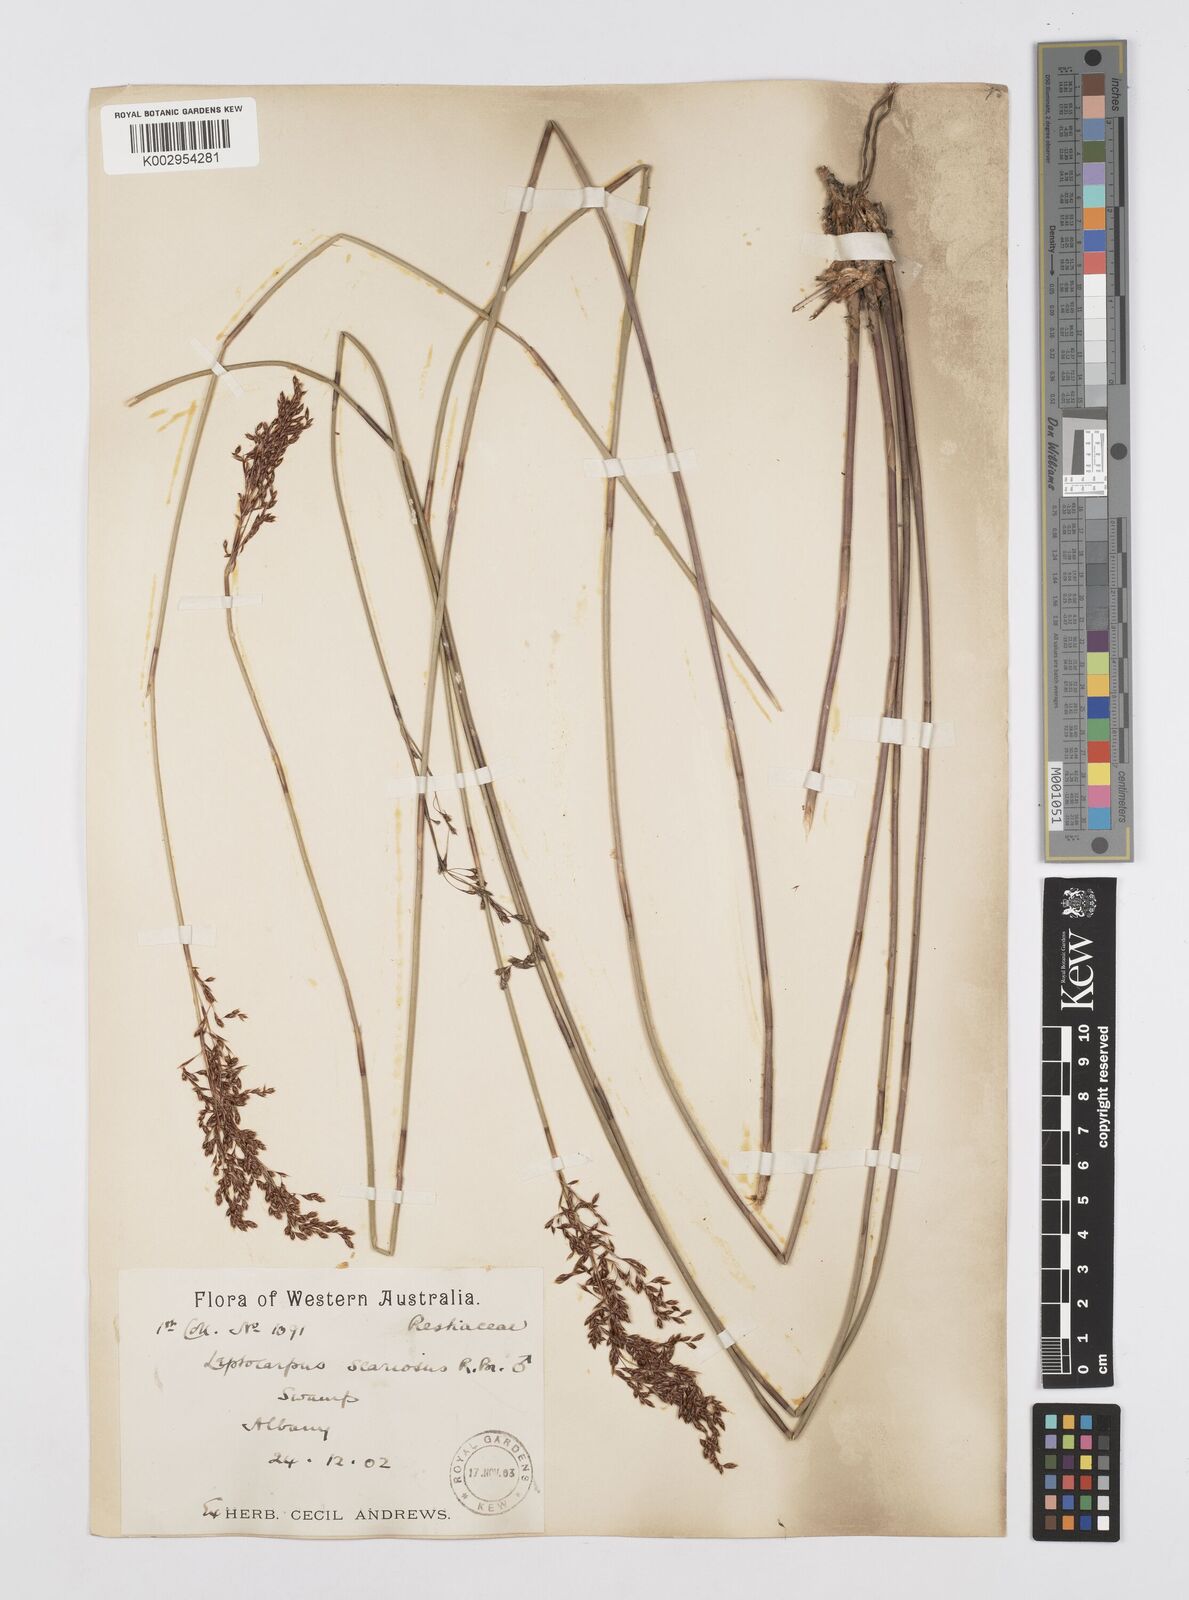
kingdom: Plantae
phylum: Tracheophyta
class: Liliopsida
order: Poales
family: Restionaceae
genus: Leptocarpus
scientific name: Leptocarpus scariosus
